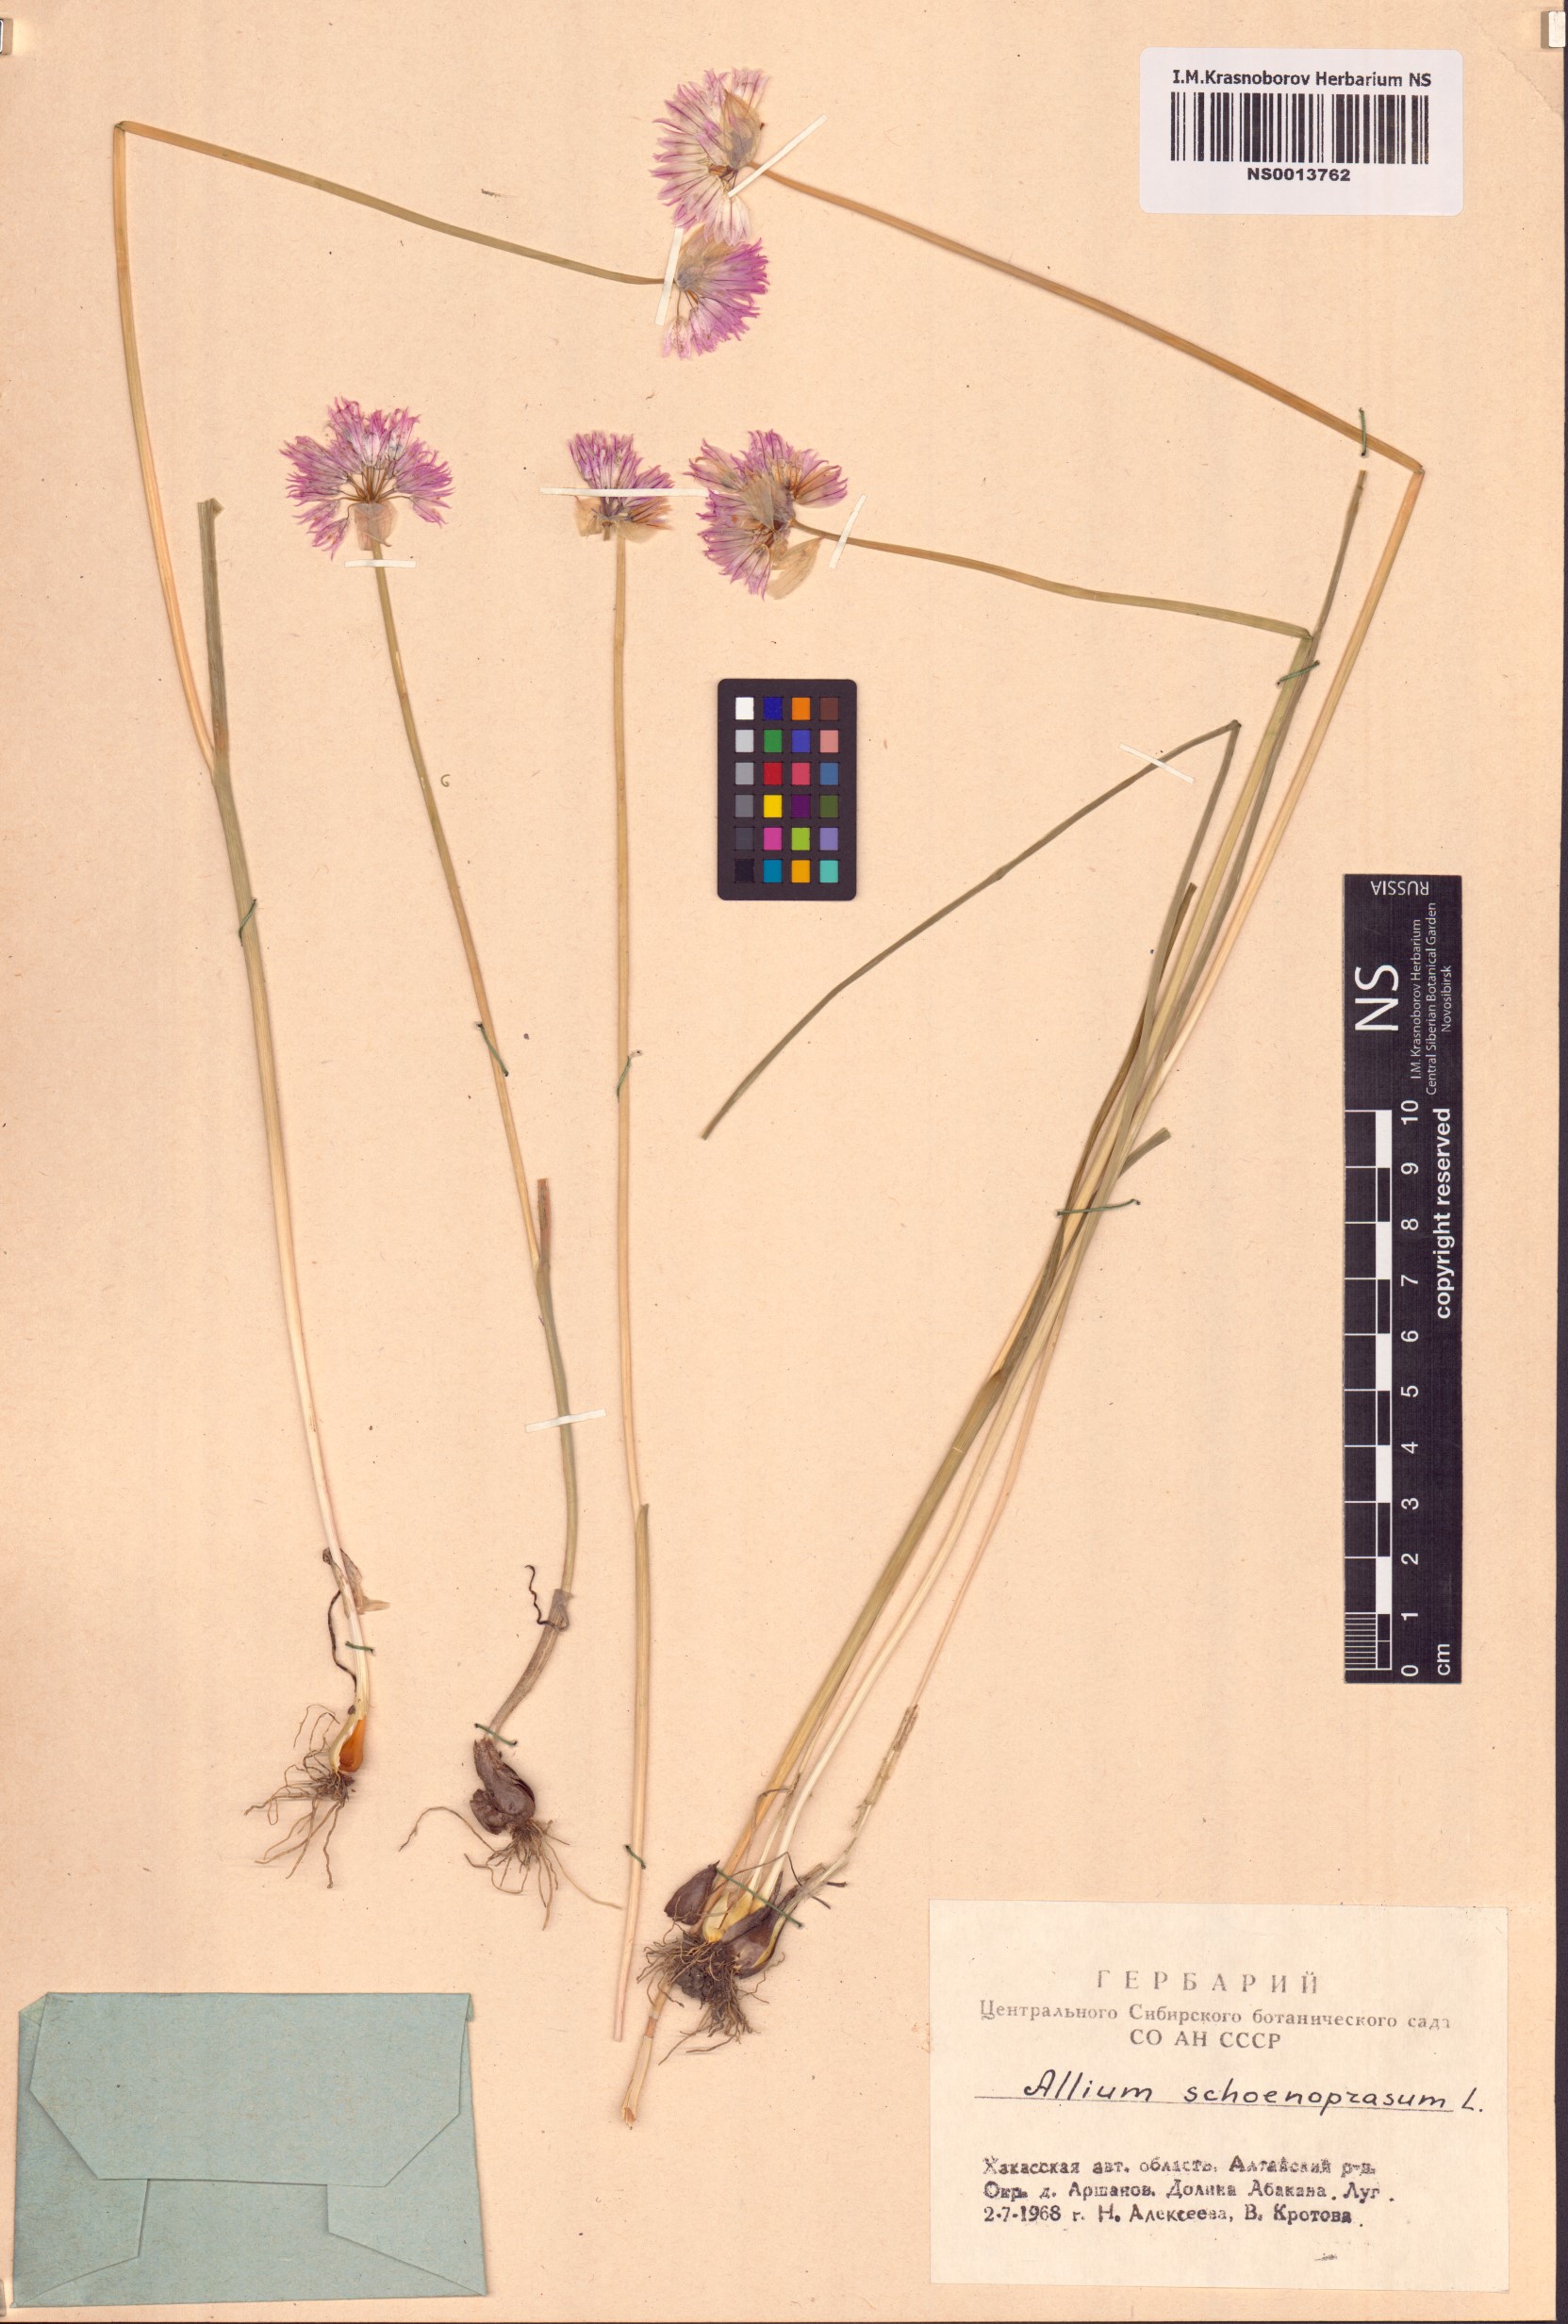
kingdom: Plantae
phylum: Tracheophyta
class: Liliopsida
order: Asparagales
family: Amaryllidaceae
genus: Allium
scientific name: Allium schoenoprasum
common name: Chives
